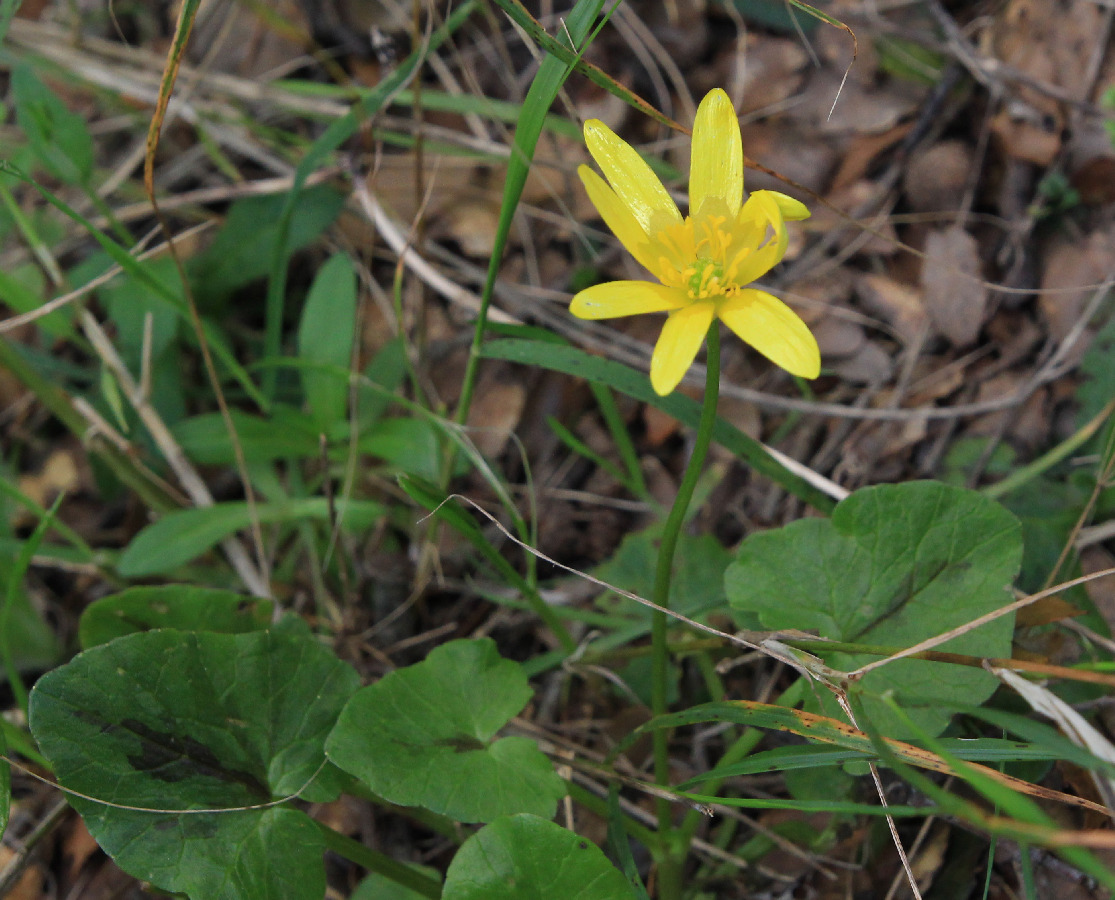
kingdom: Plantae
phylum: Tracheophyta
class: Magnoliopsida
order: Ranunculales
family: Ranunculaceae
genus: Ficaria
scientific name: Ficaria verna
